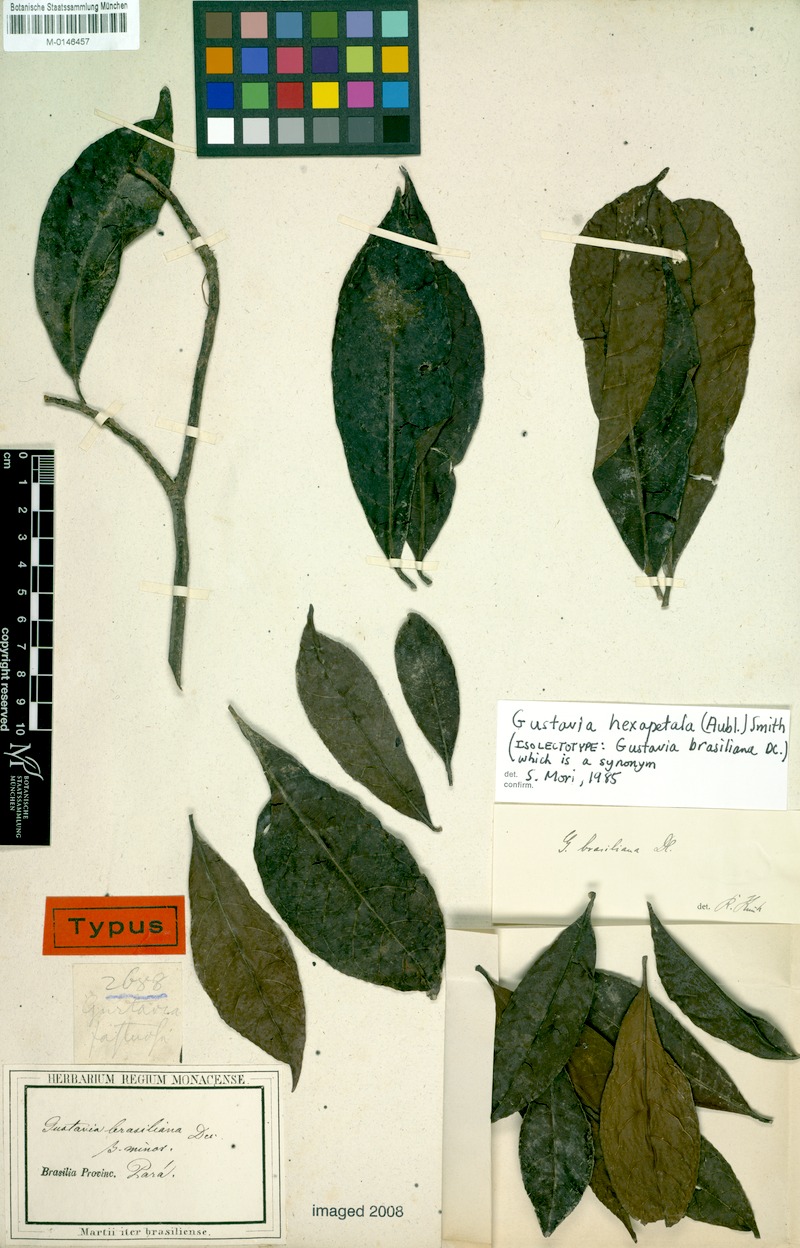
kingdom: Plantae
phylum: Tracheophyta
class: Magnoliopsida
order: Ericales
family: Lecythidaceae
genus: Gustavia
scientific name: Gustavia hexapetala
